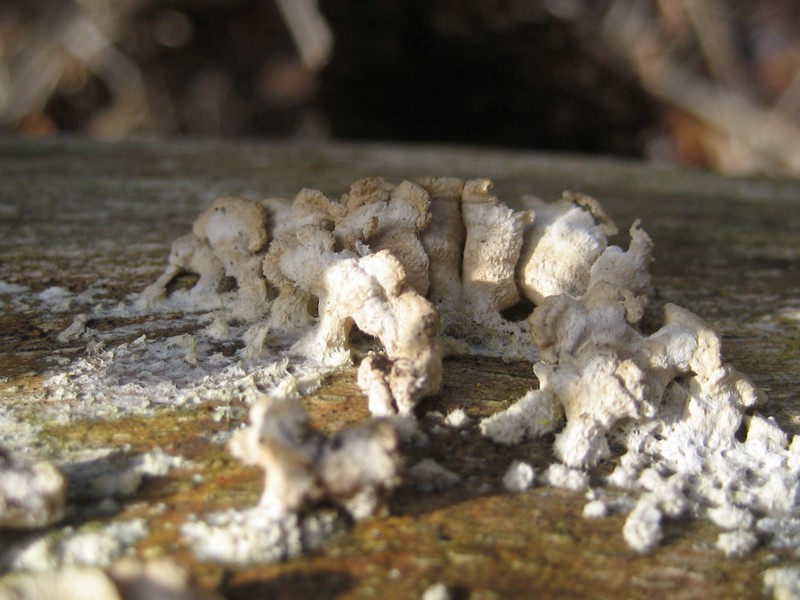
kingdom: Fungi
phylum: Basidiomycota
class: Agaricomycetes
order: Amylocorticiales
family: Amylocorticiaceae
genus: Plicaturopsis
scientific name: Plicaturopsis crispa
